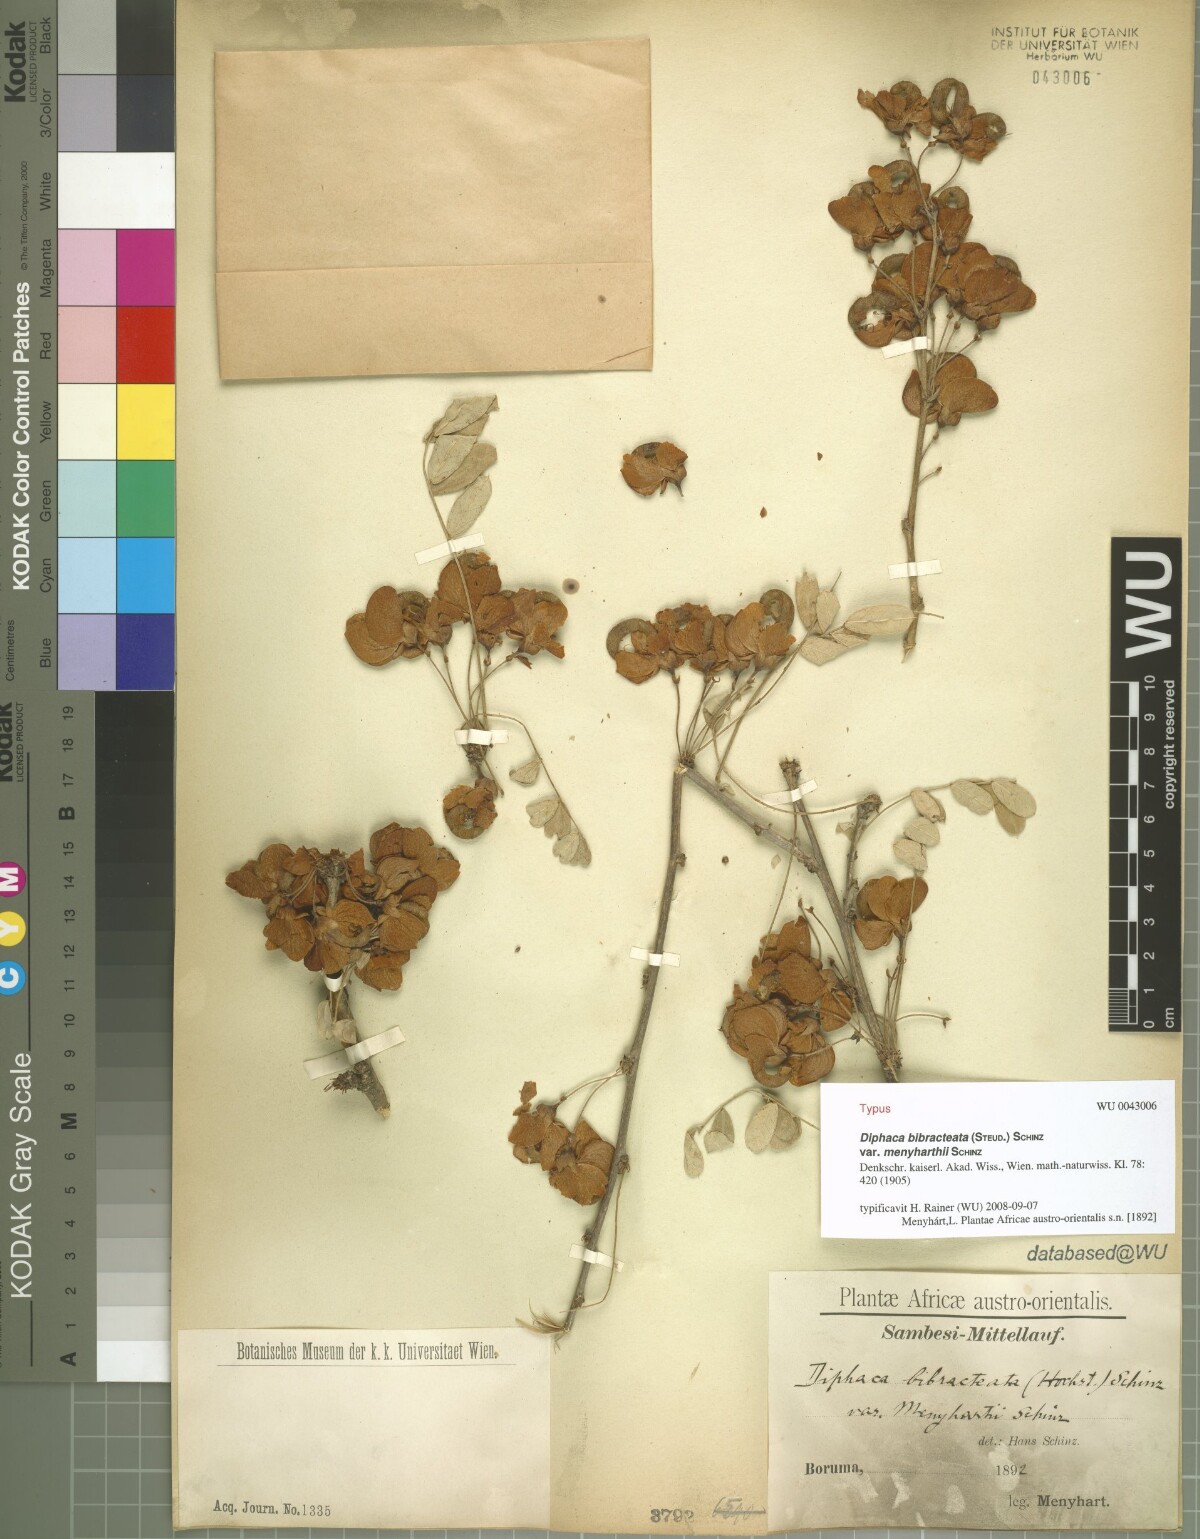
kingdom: Plantae
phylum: Tracheophyta
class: Magnoliopsida
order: Fabales
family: Fabaceae
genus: Ormocarpum
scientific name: Ormocarpum
